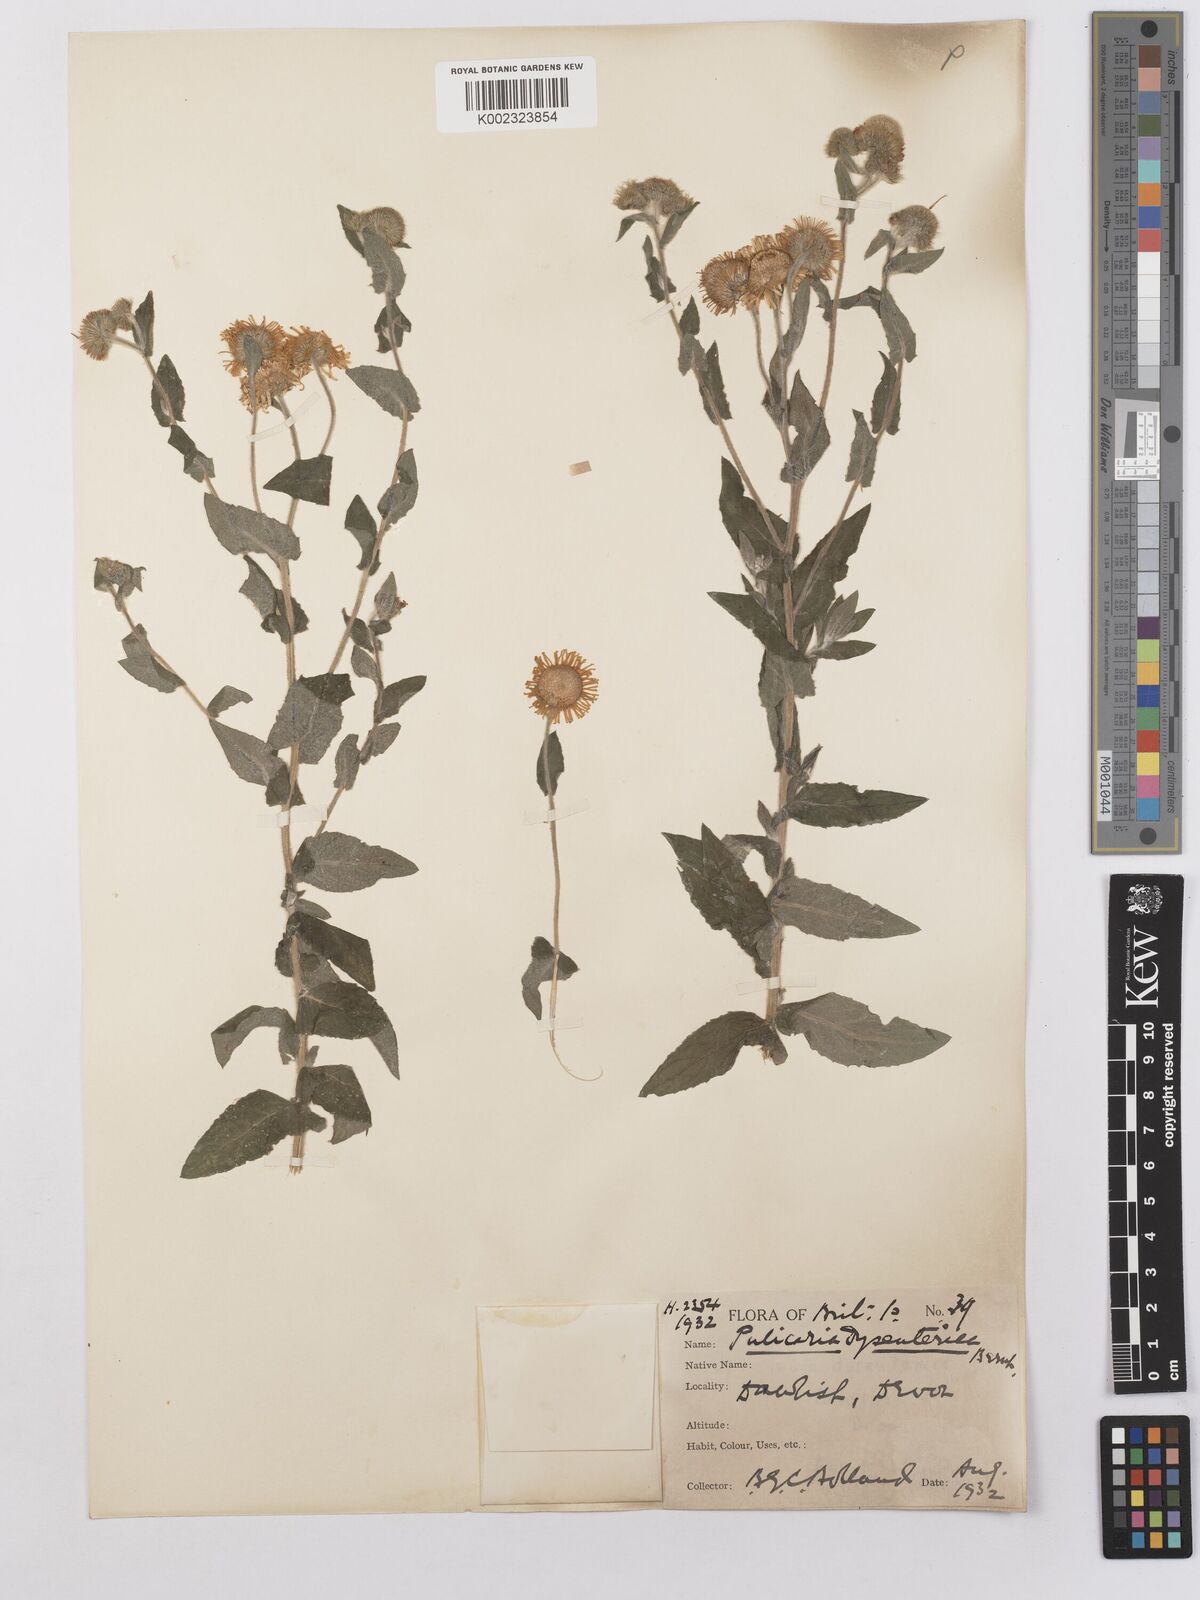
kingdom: Plantae
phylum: Tracheophyta
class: Magnoliopsida
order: Asterales
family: Asteraceae
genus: Pulicaria
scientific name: Pulicaria dysenterica
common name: Common fleabane
